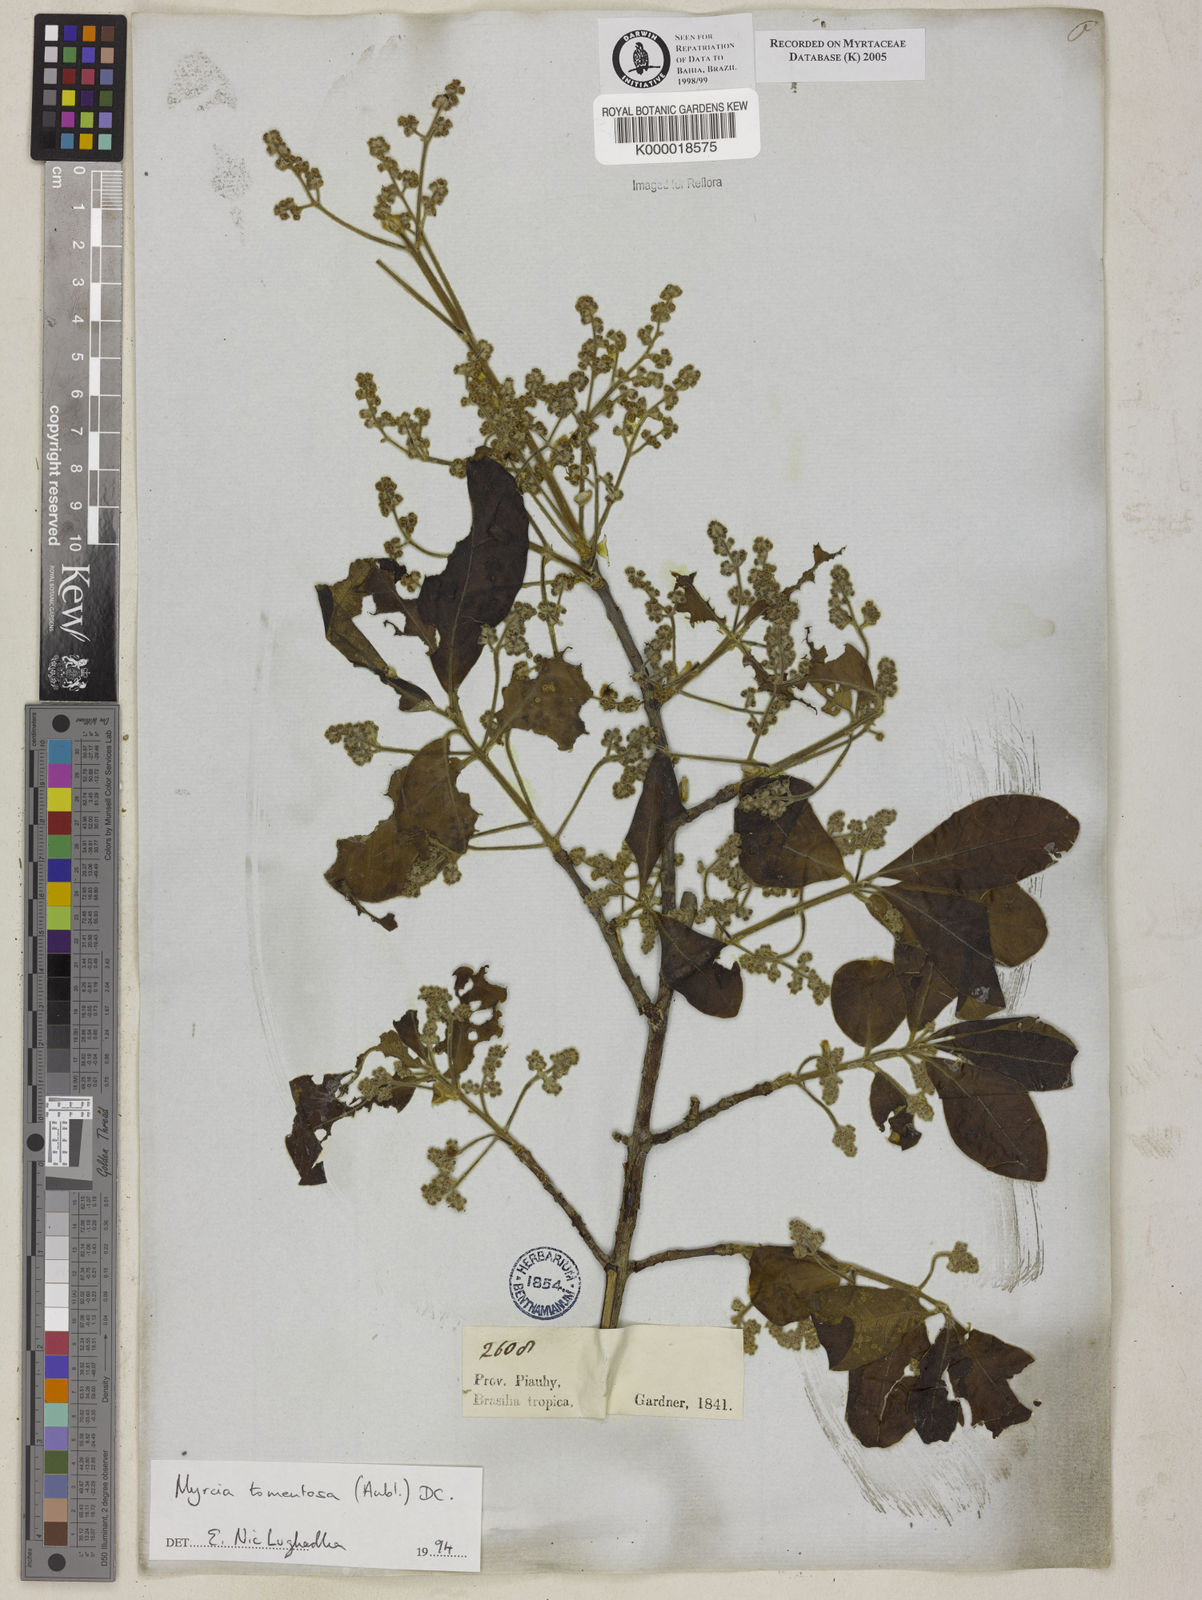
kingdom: Plantae
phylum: Tracheophyta
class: Magnoliopsida
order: Myrtales
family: Myrtaceae
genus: Myrcia
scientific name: Myrcia tomentosa
